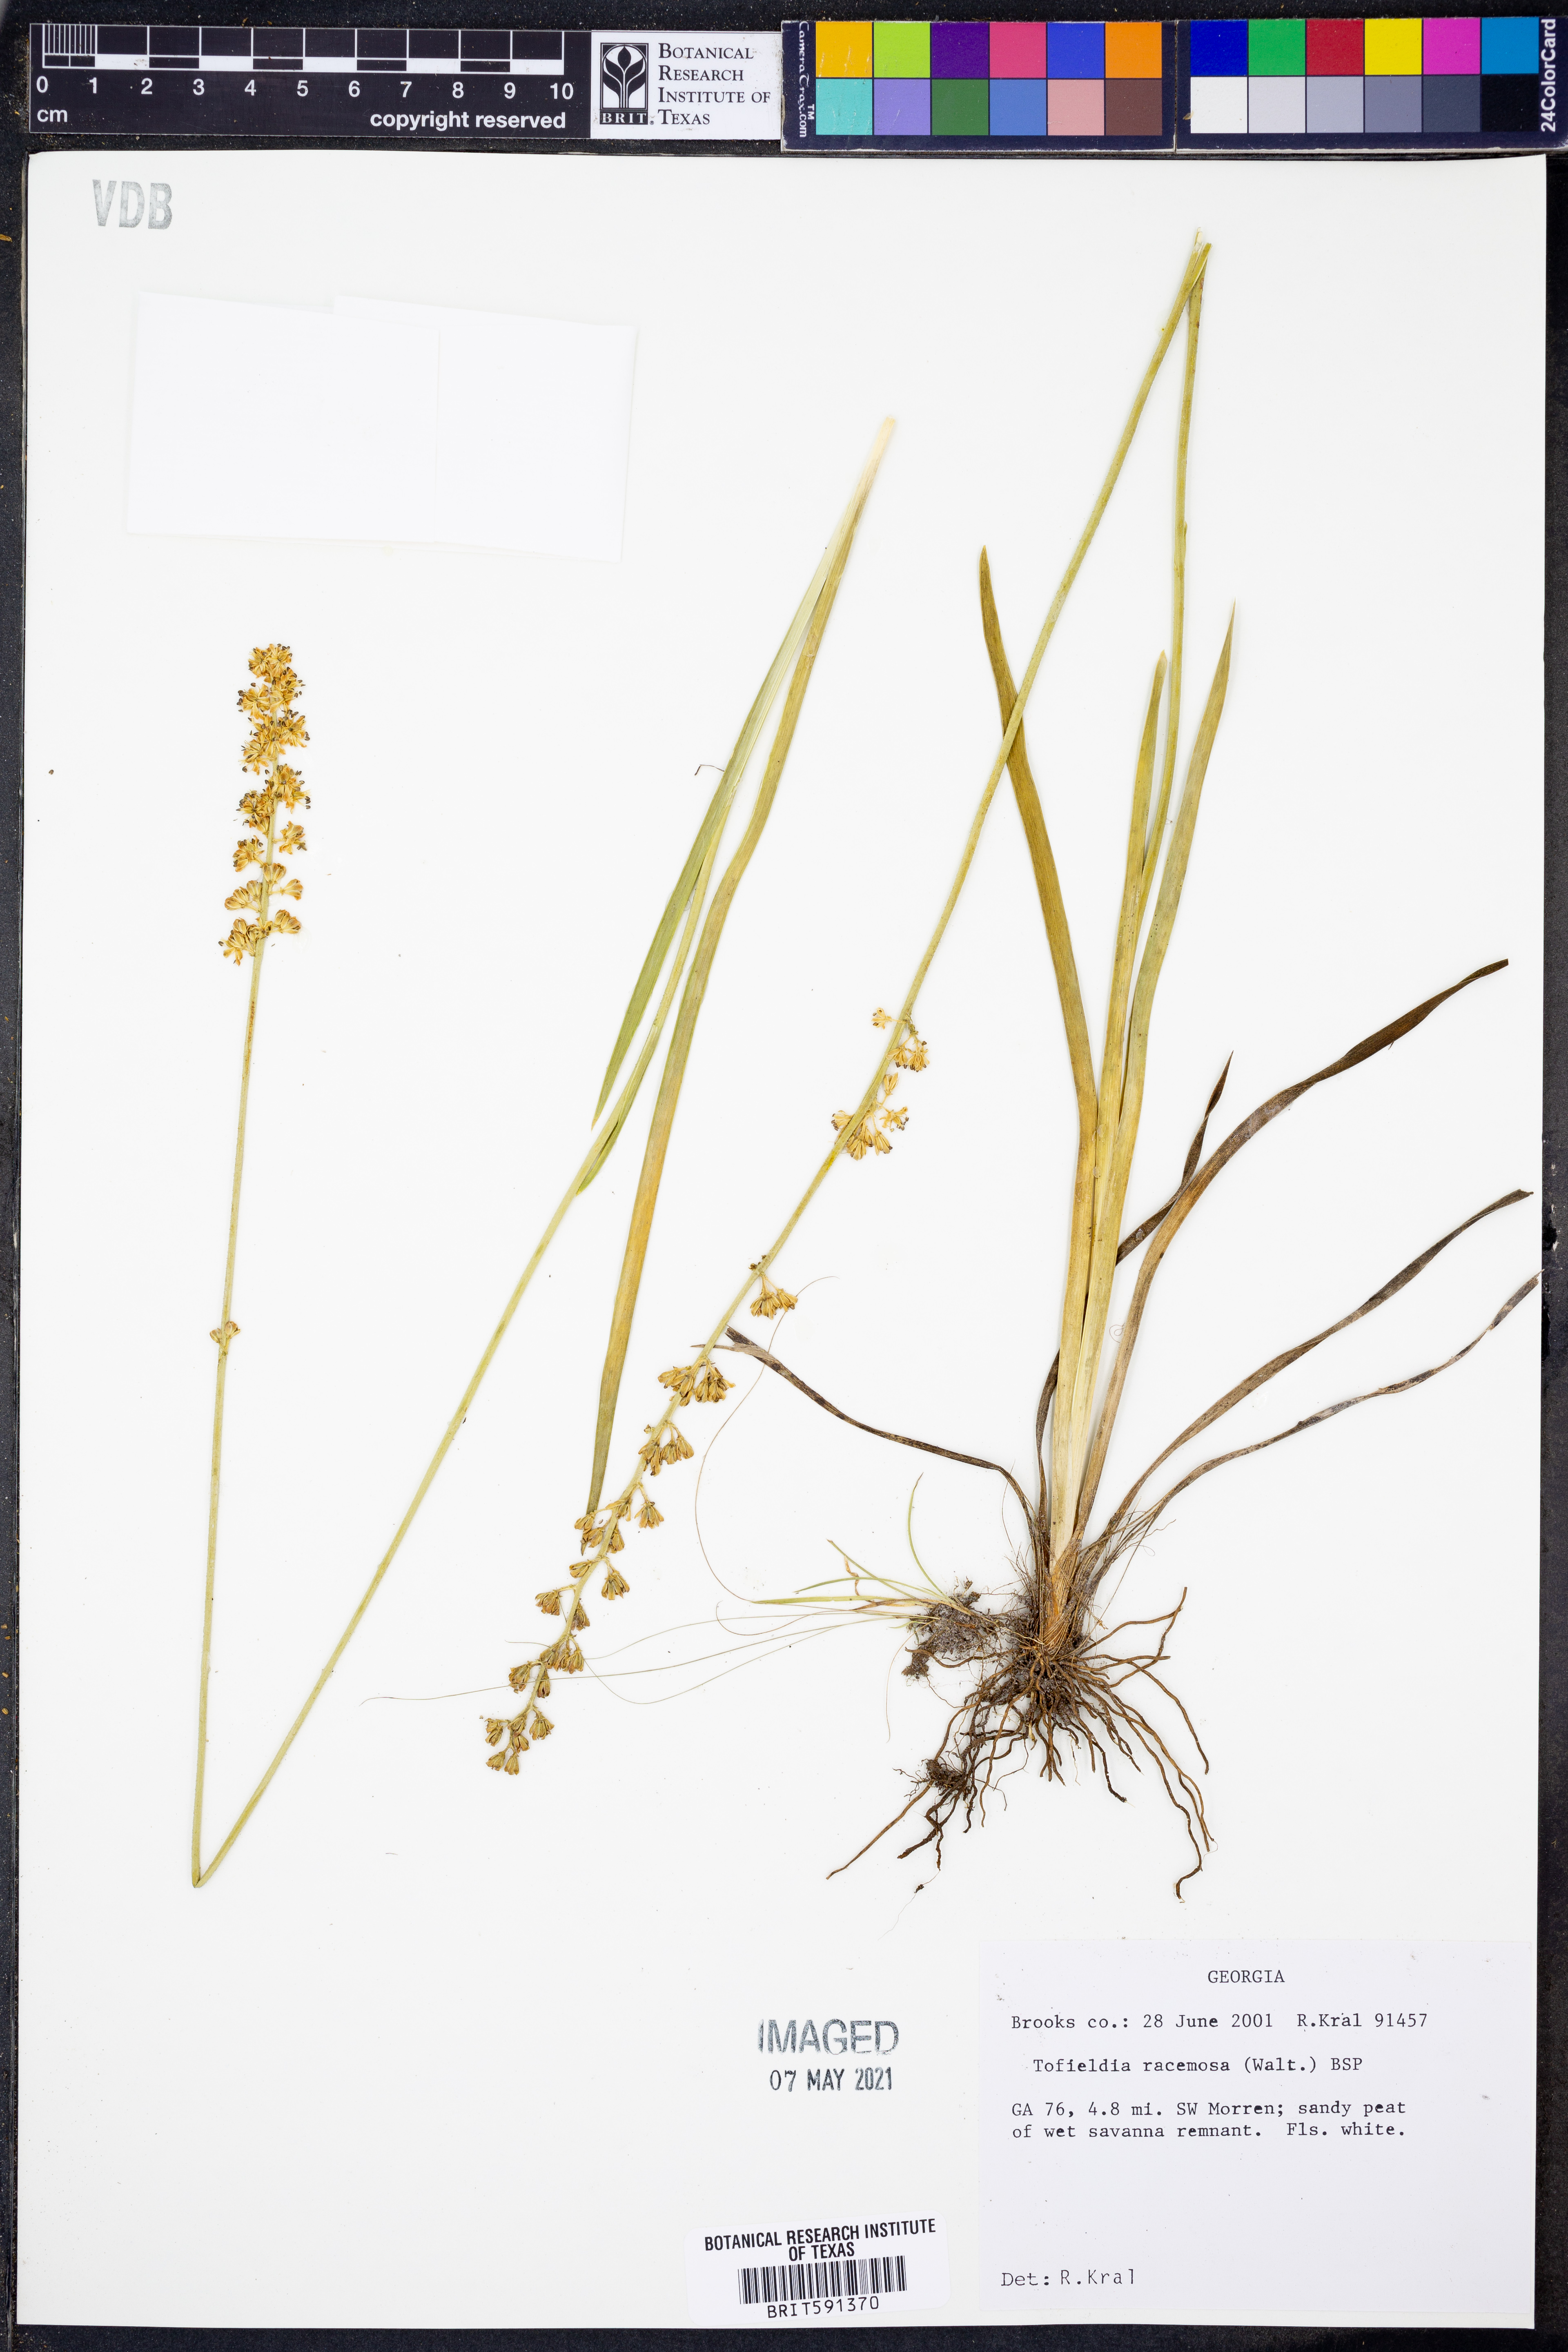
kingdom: Plantae
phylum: Tracheophyta
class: Liliopsida
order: Alismatales
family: Tofieldiaceae
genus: Triantha
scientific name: Triantha racemosa
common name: Coastal false asphodel
